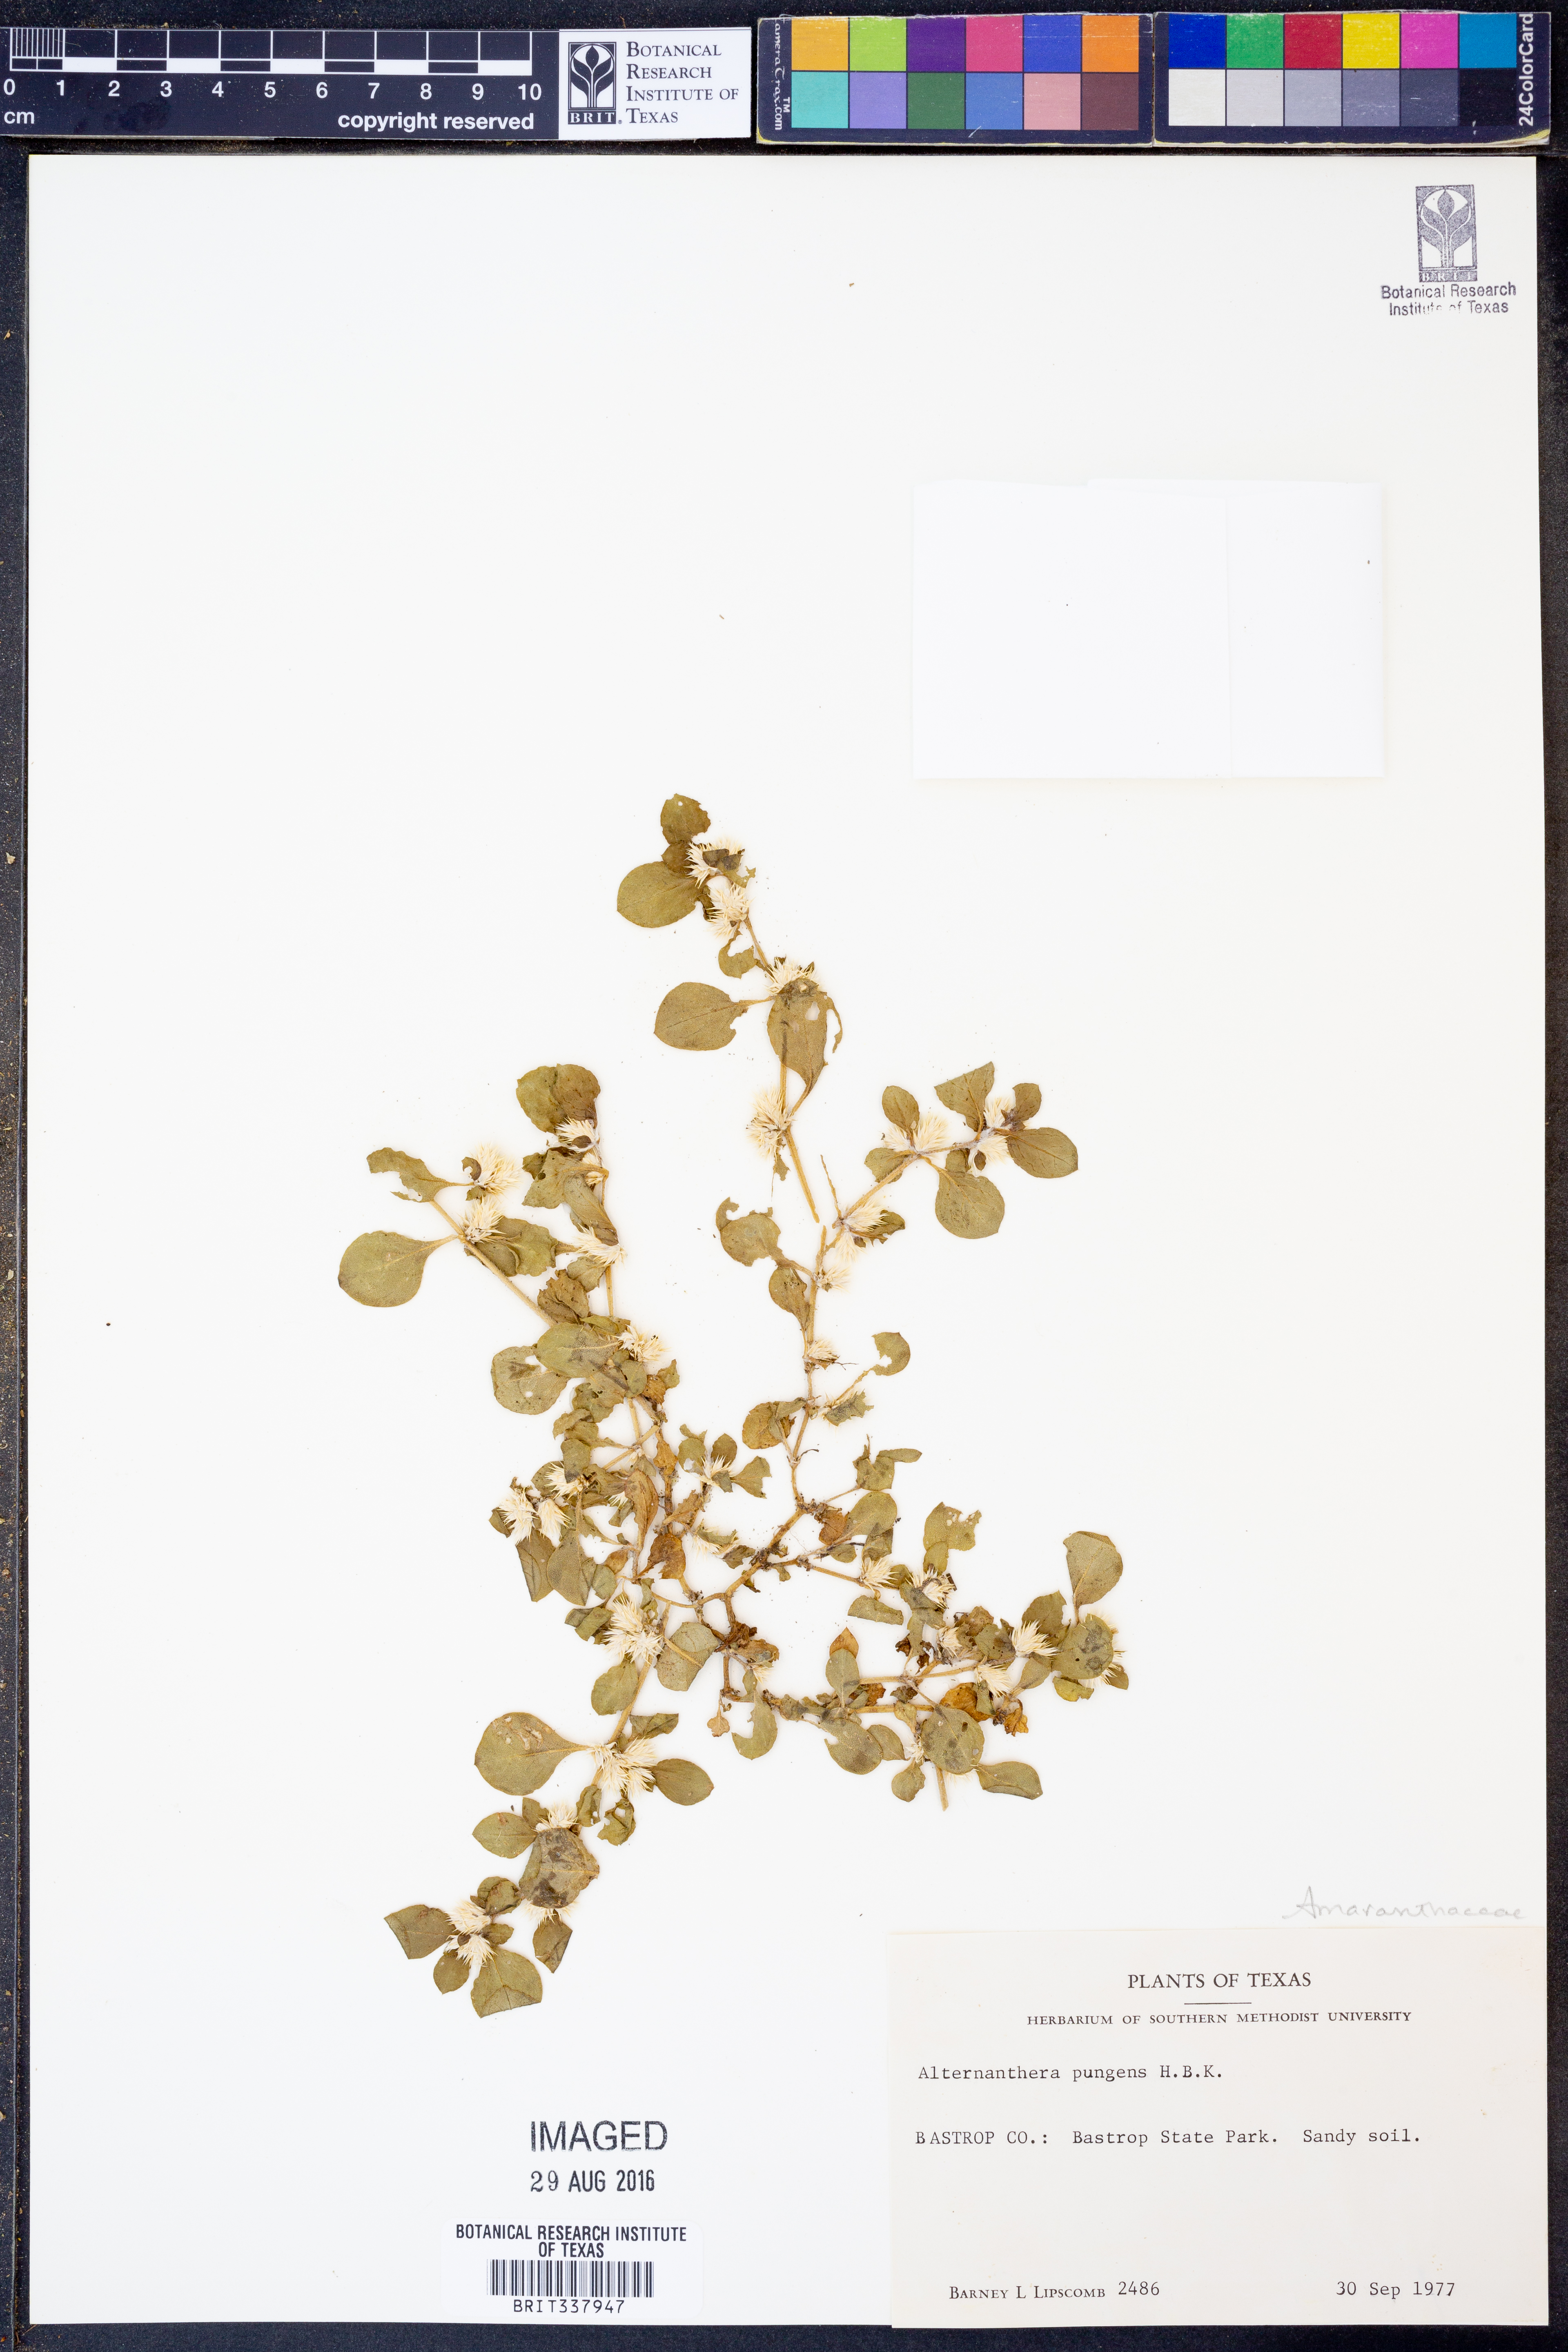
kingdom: Plantae
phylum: Tracheophyta
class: Magnoliopsida
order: Caryophyllales
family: Amaranthaceae
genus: Alternanthera
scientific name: Alternanthera pungens
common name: Khakiweed
